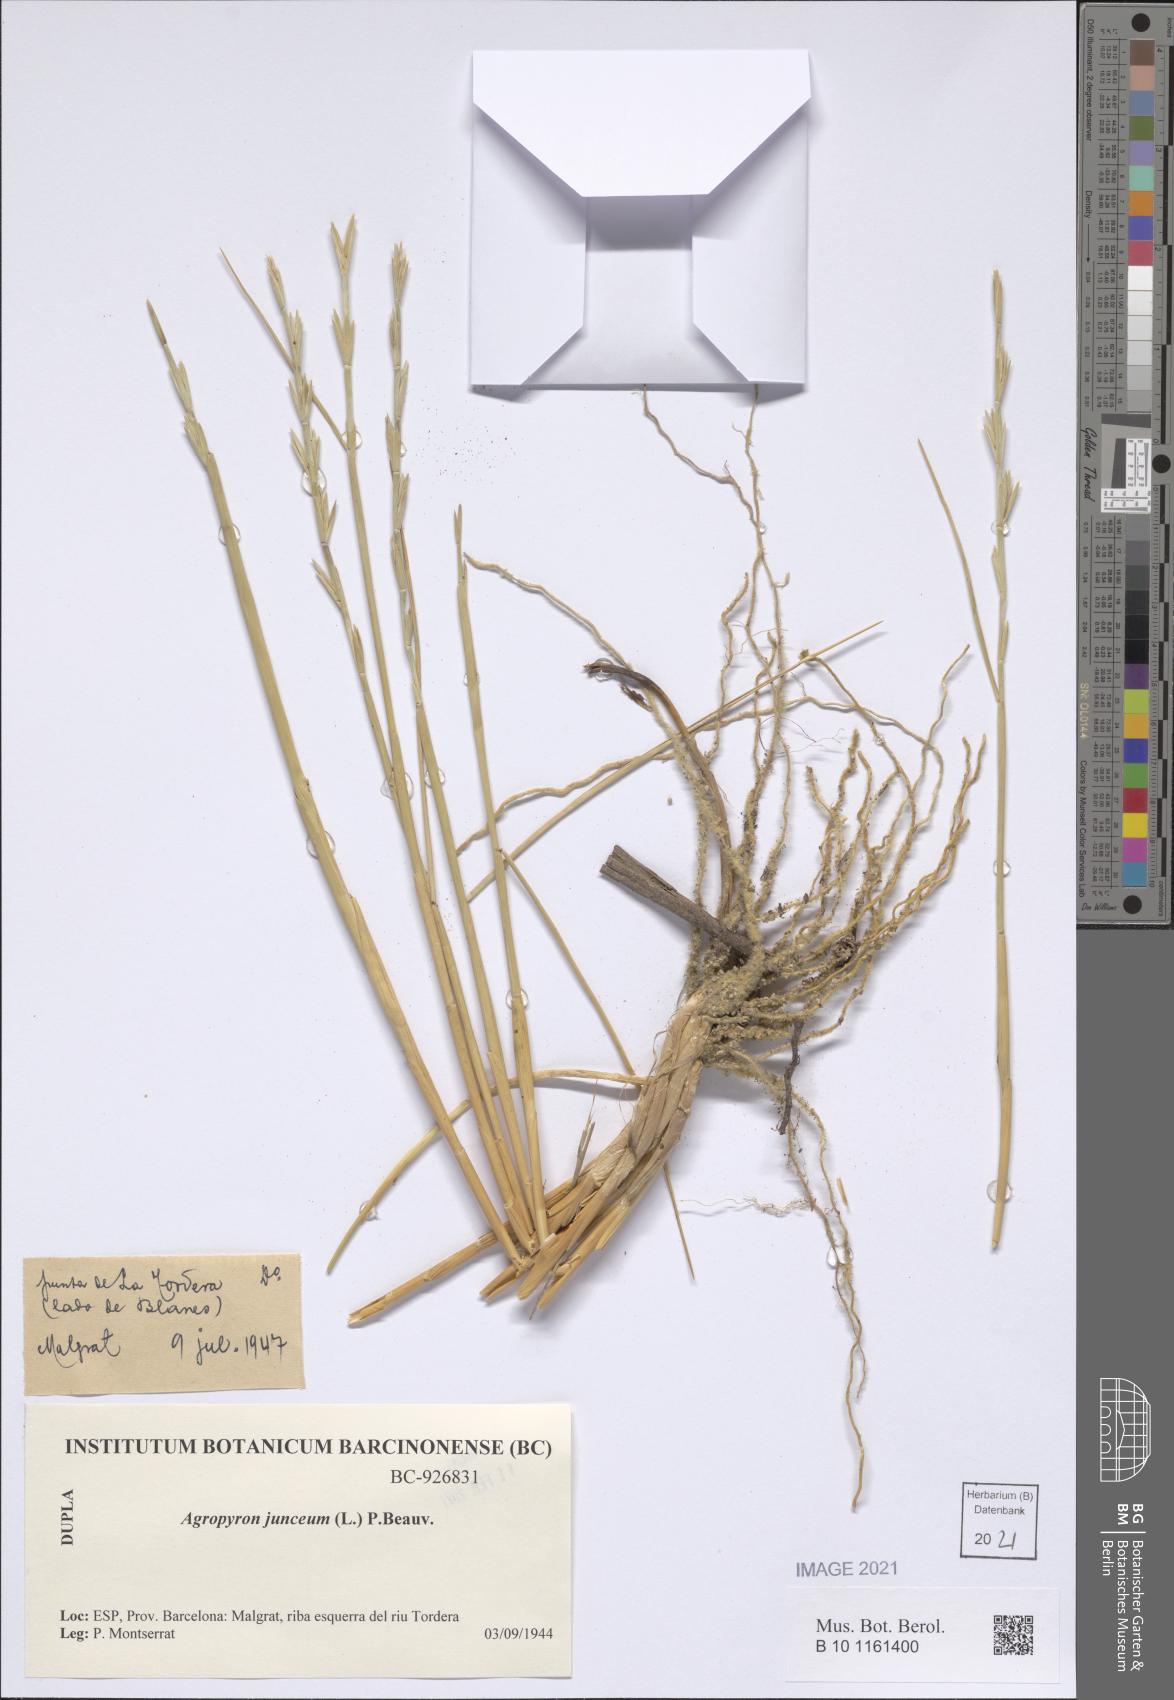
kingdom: Plantae
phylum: Tracheophyta
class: Liliopsida
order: Poales
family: Poaceae
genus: Thinopyrum
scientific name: Thinopyrum junceum
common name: Russian wheatgrass
